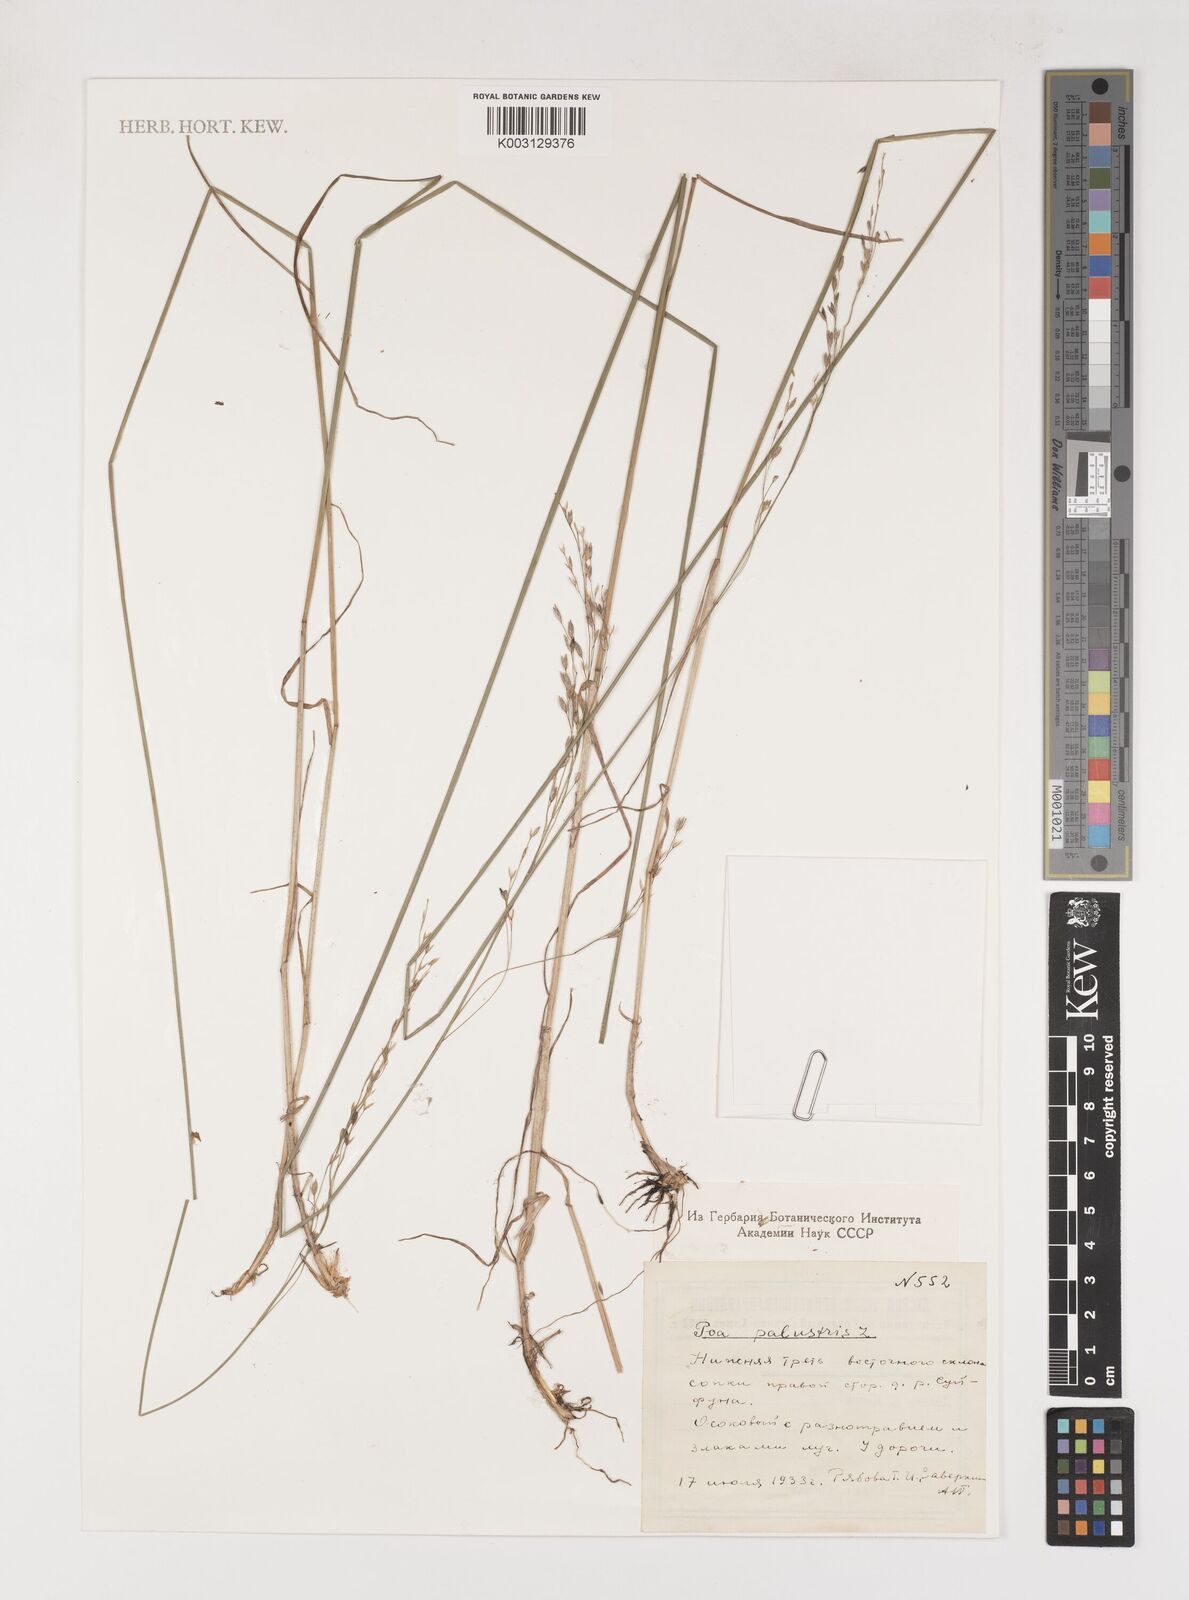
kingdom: Plantae
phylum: Tracheophyta
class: Liliopsida
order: Poales
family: Poaceae
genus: Poa
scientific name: Poa palustris
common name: Swamp meadow-grass
